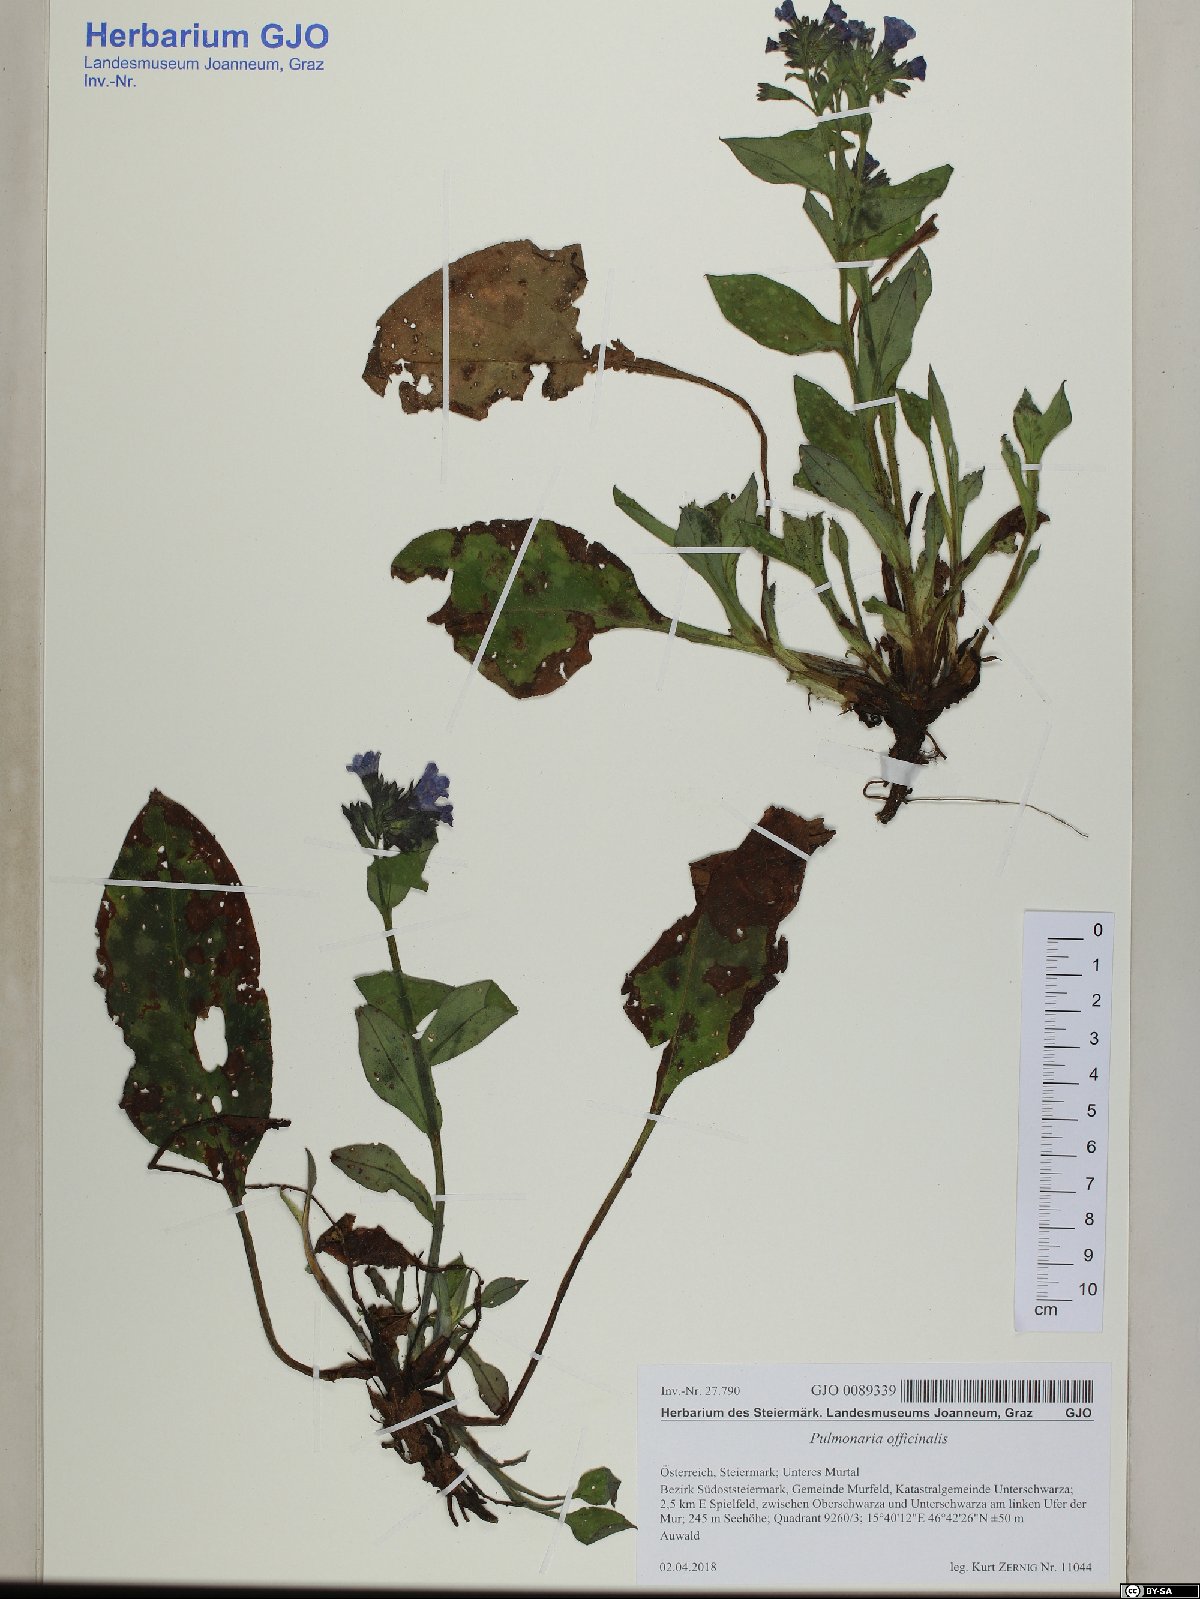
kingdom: Plantae
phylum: Tracheophyta
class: Magnoliopsida
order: Boraginales
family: Boraginaceae
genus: Pulmonaria
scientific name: Pulmonaria officinalis
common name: Lungwort
